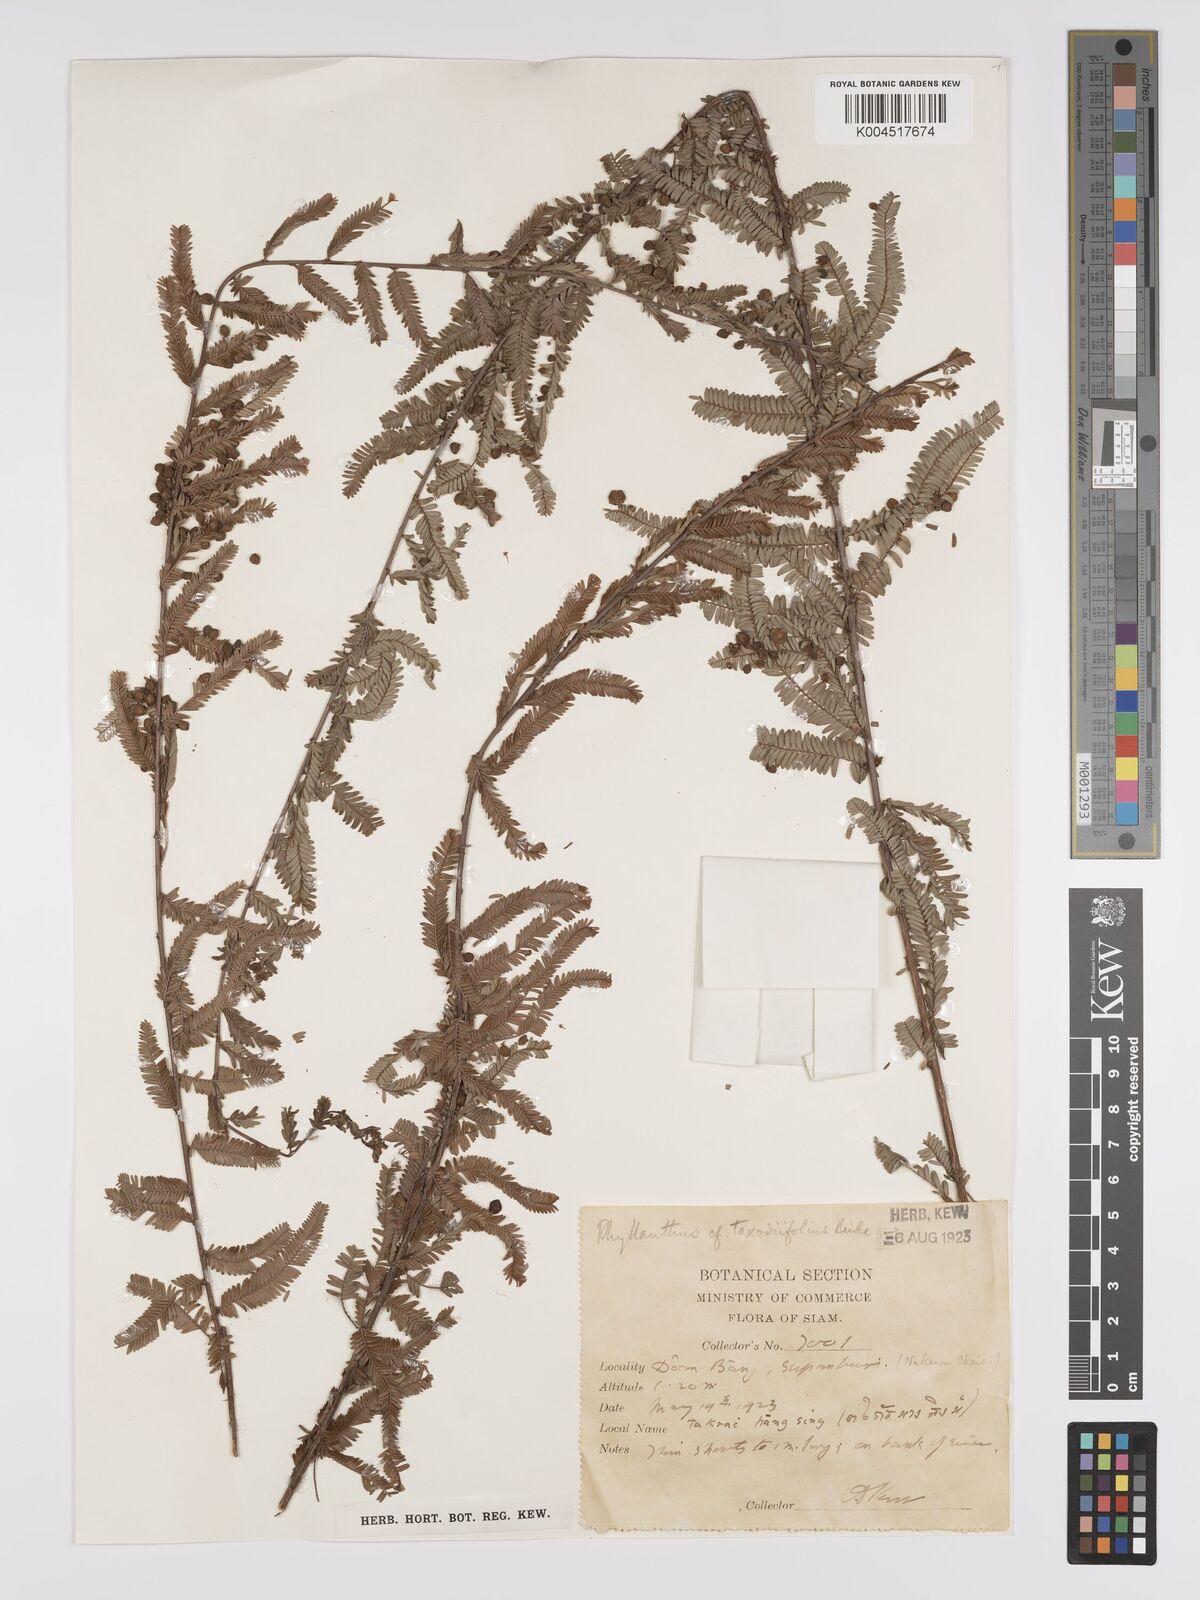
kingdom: Plantae
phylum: Tracheophyta
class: Magnoliopsida
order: Malpighiales
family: Phyllanthaceae
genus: Phyllanthus
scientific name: Phyllanthus taxodiifolius
